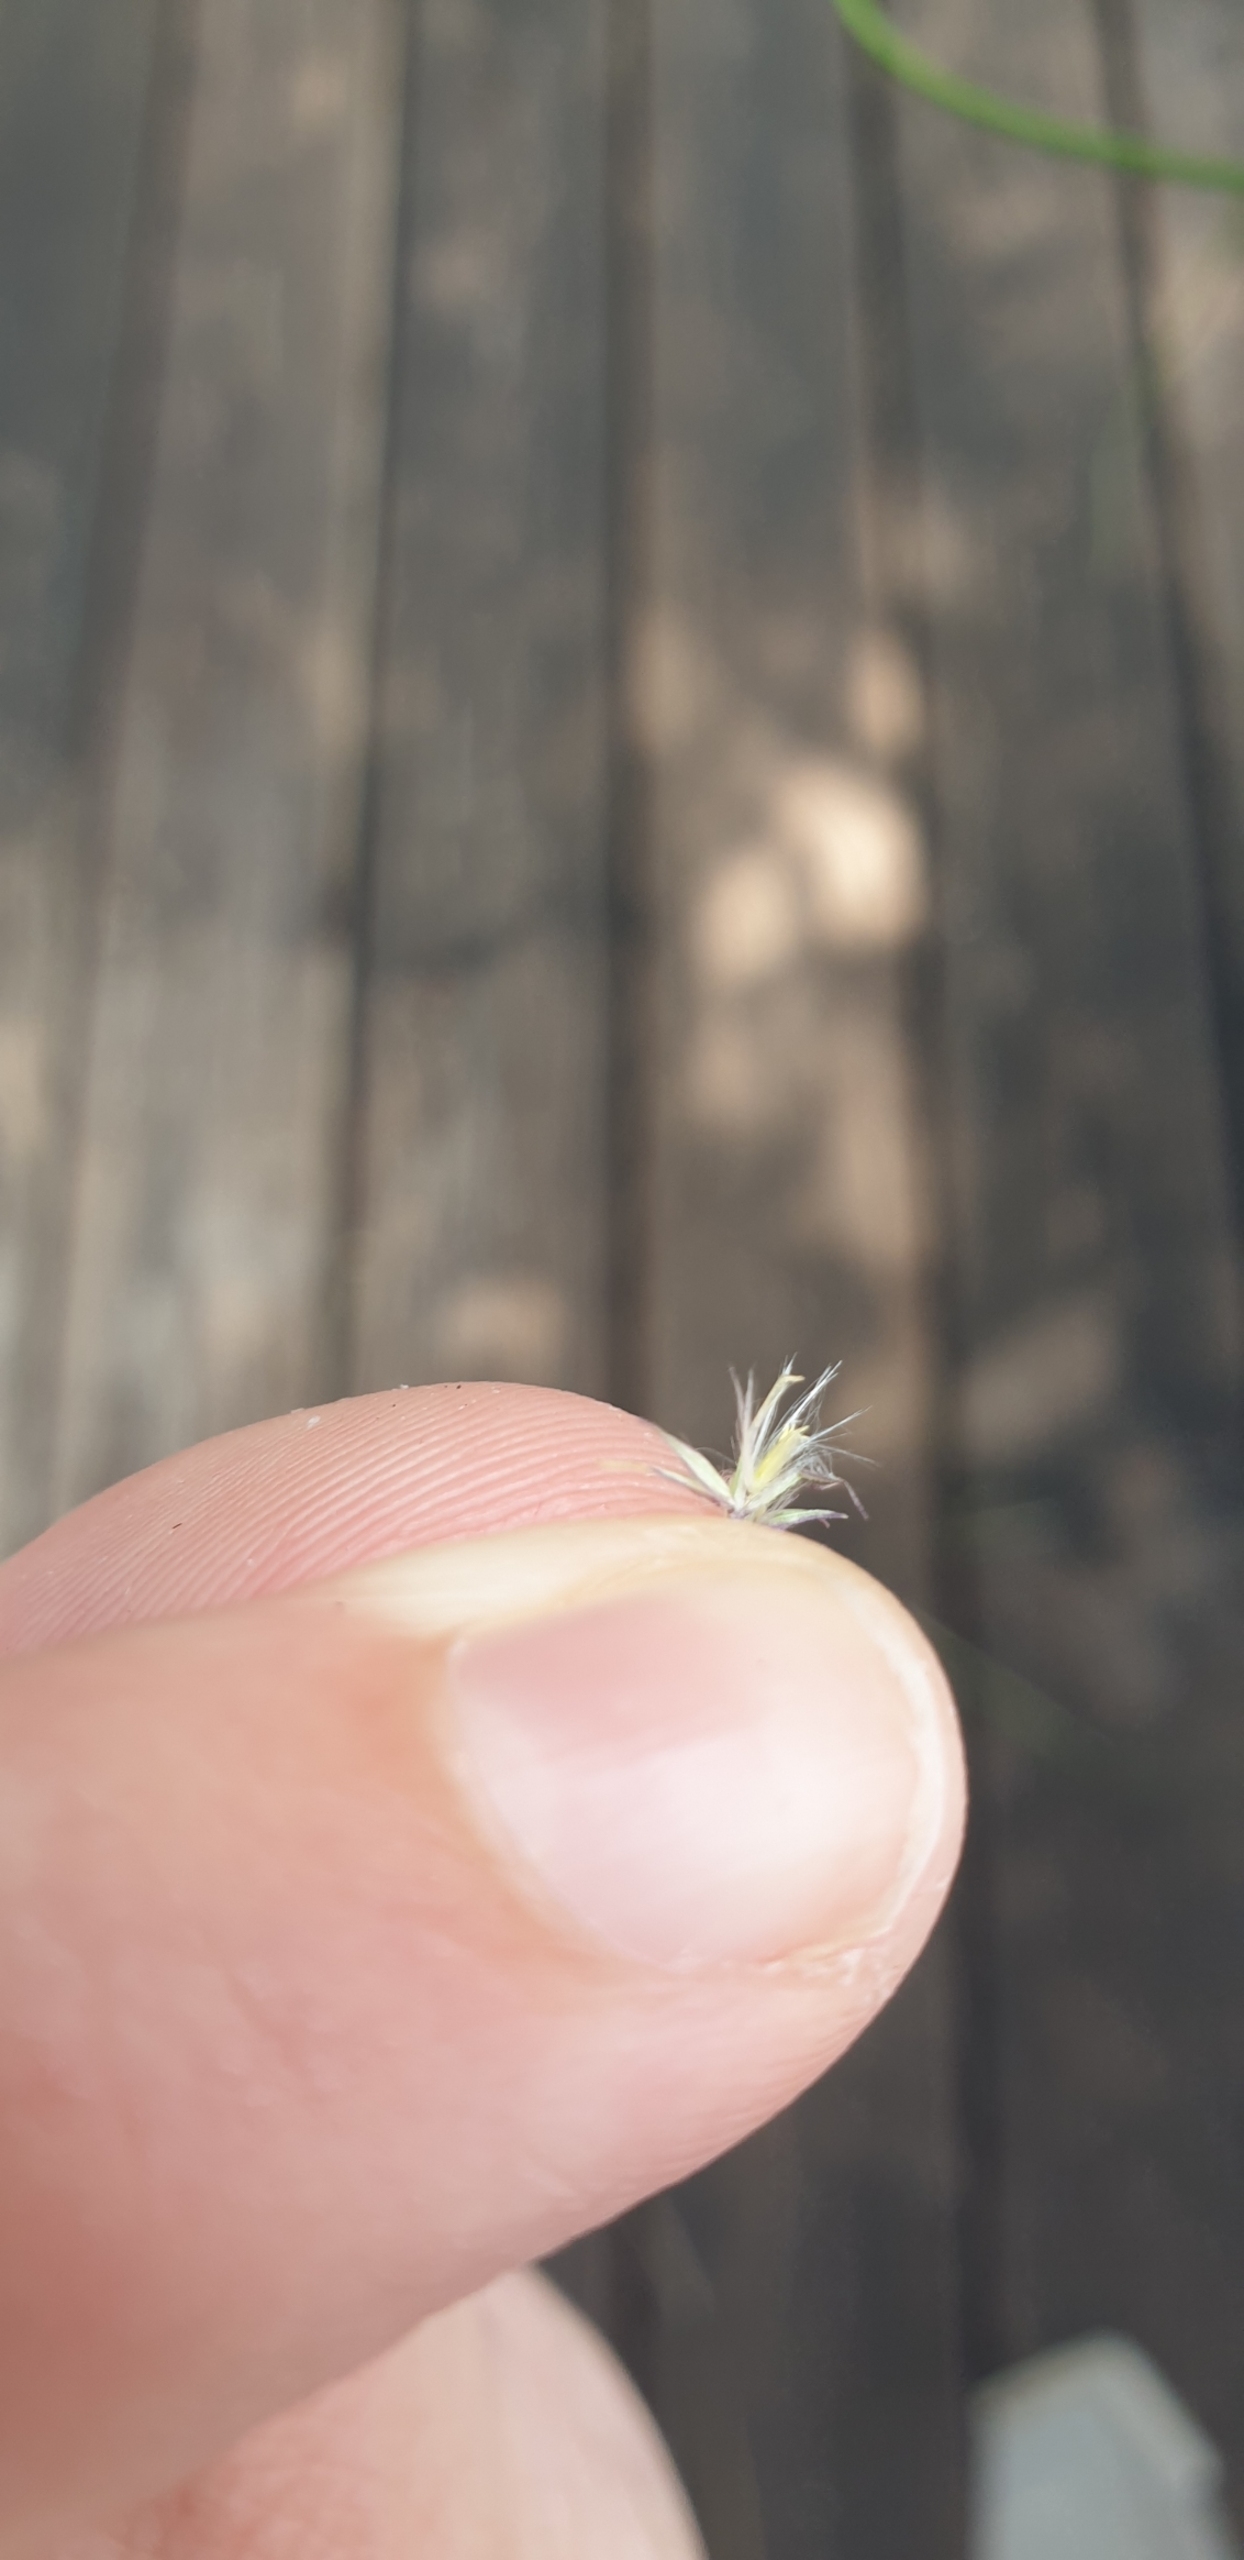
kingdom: Plantae
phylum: Tracheophyta
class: Liliopsida
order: Poales
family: Poaceae
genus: Calamagrostis
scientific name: Calamagrostis epigejos
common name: Bjerg-rørhvene
